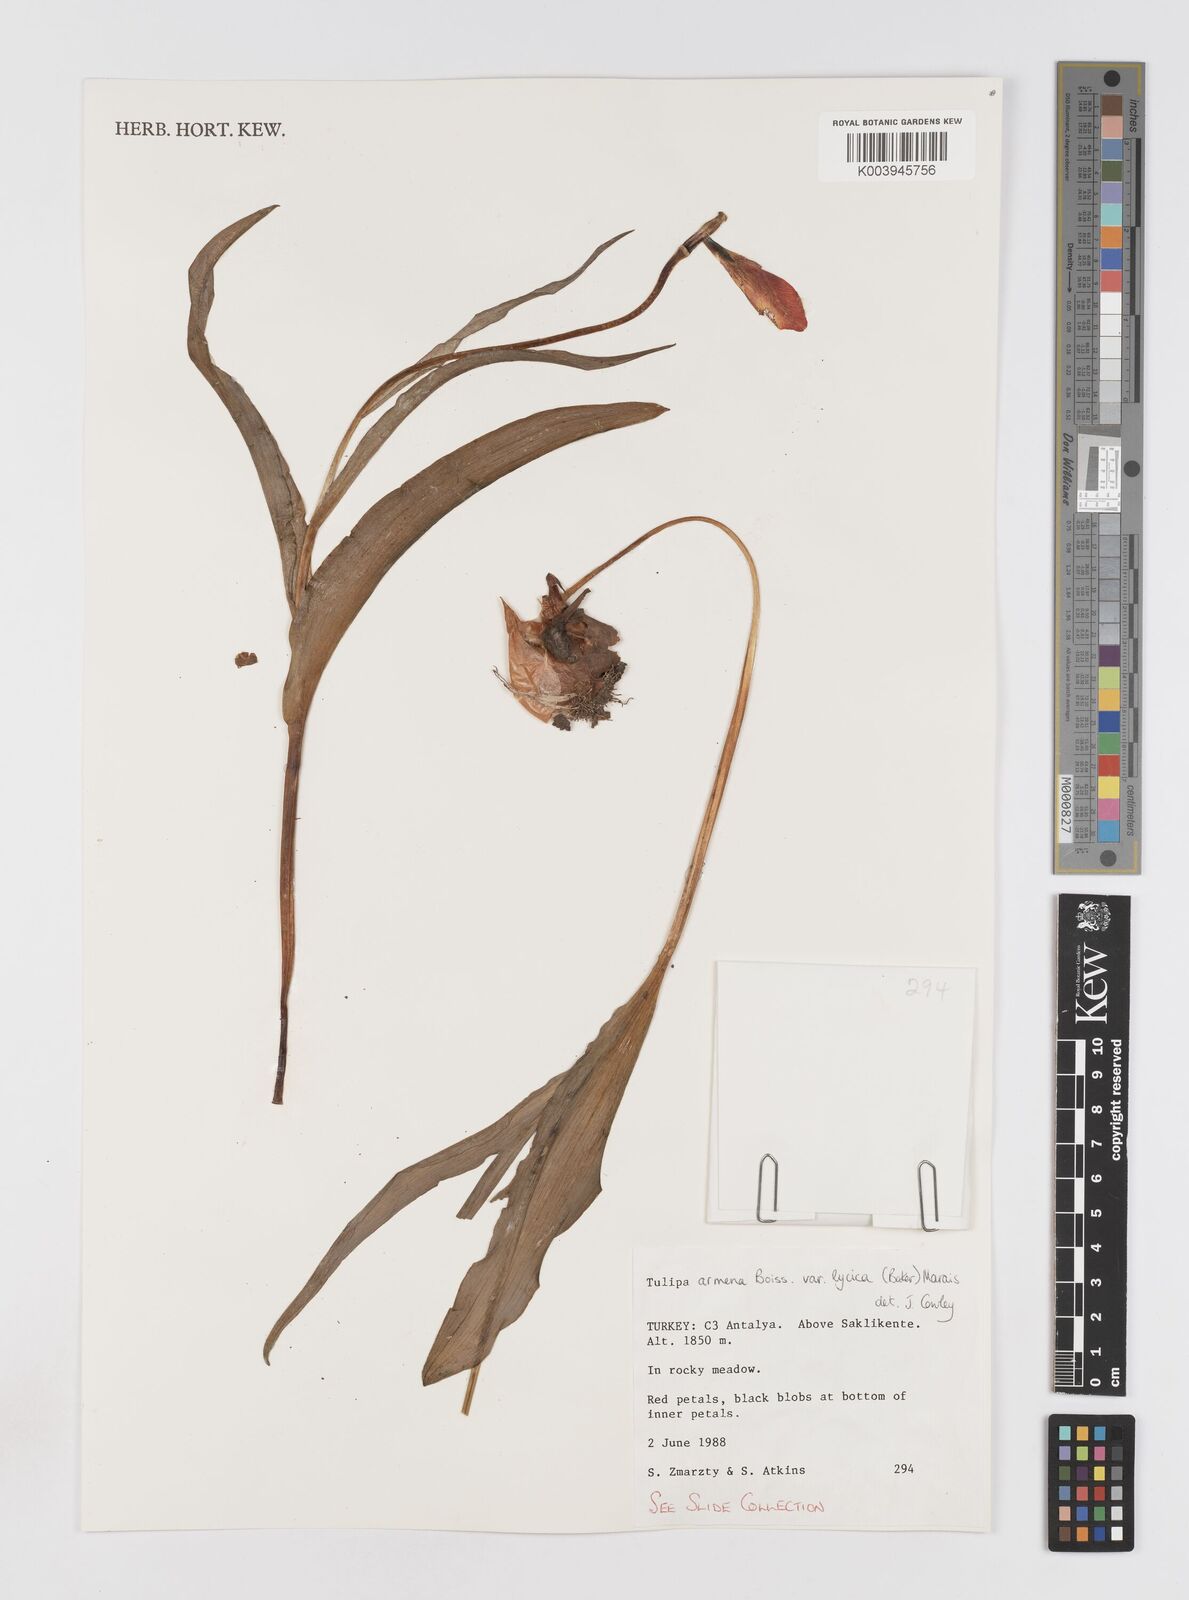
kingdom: Plantae
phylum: Tracheophyta
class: Liliopsida
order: Liliales
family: Liliaceae
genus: Tulipa
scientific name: Tulipa armena
